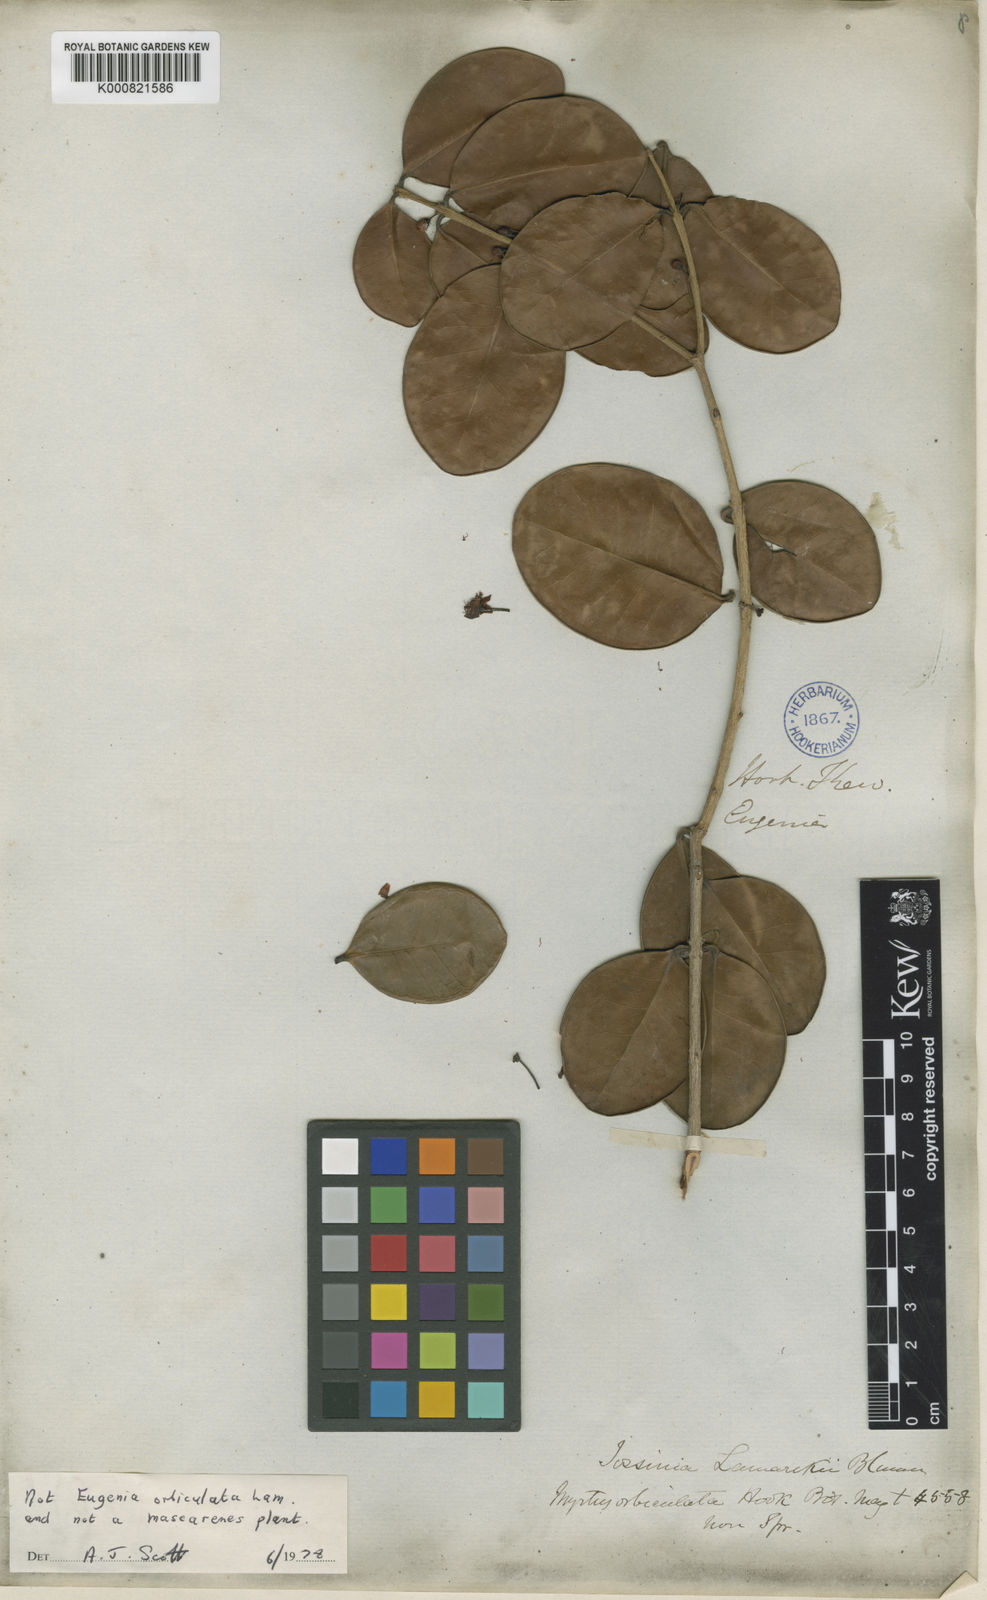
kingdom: Plantae
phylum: Tracheophyta
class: Magnoliopsida
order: Myrtales
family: Myrtaceae
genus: Eugenia
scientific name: Eugenia uniflora
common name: Surinam cherry
